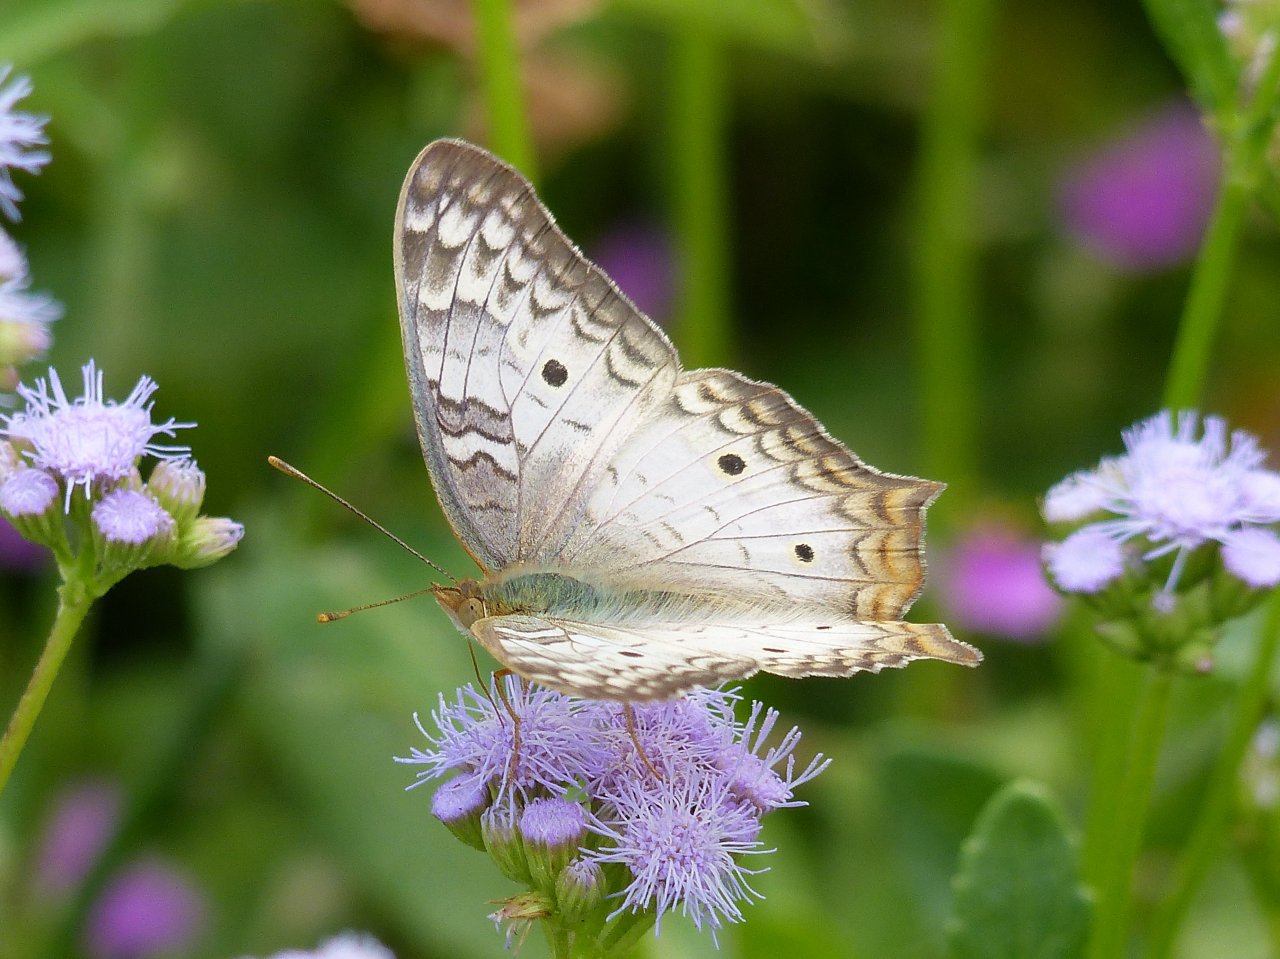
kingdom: Animalia
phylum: Arthropoda
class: Insecta
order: Lepidoptera
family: Nymphalidae
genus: Anartia
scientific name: Anartia jatrophae
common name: White Peacock
